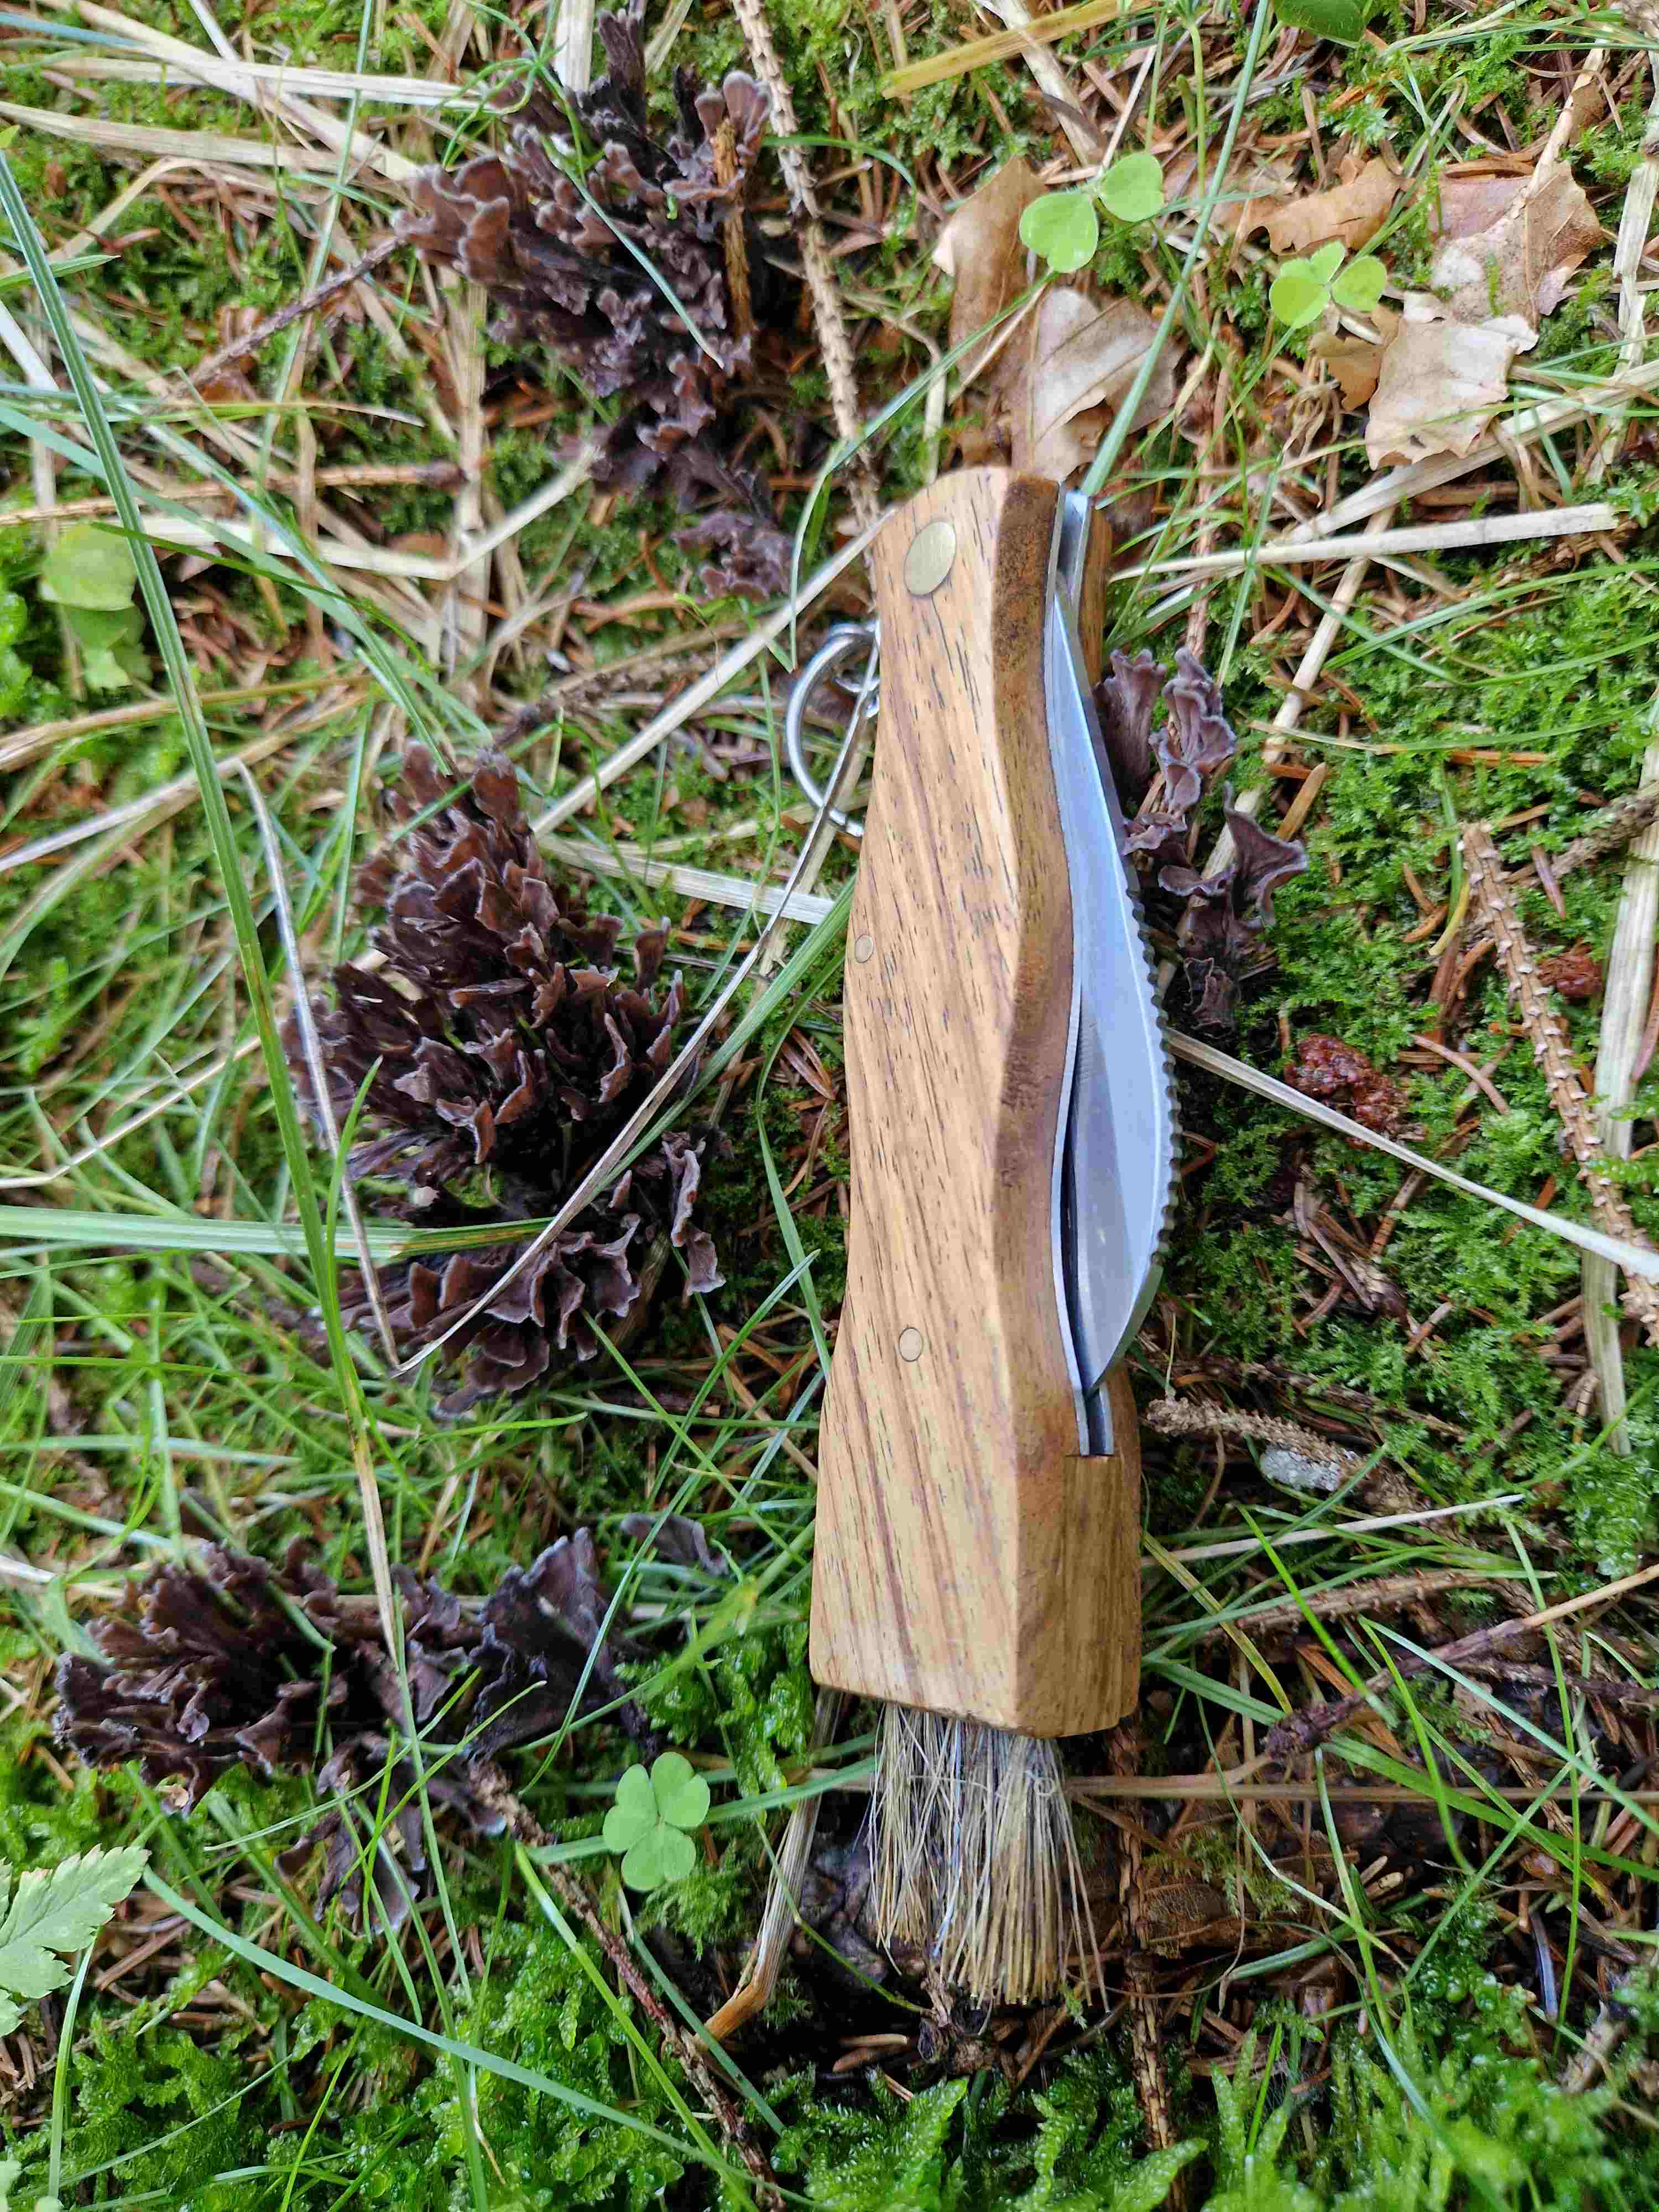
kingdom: Fungi
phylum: Basidiomycota
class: Agaricomycetes
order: Thelephorales
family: Thelephoraceae
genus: Thelephora
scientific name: Thelephora palmata
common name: grenet frynsesvamp
